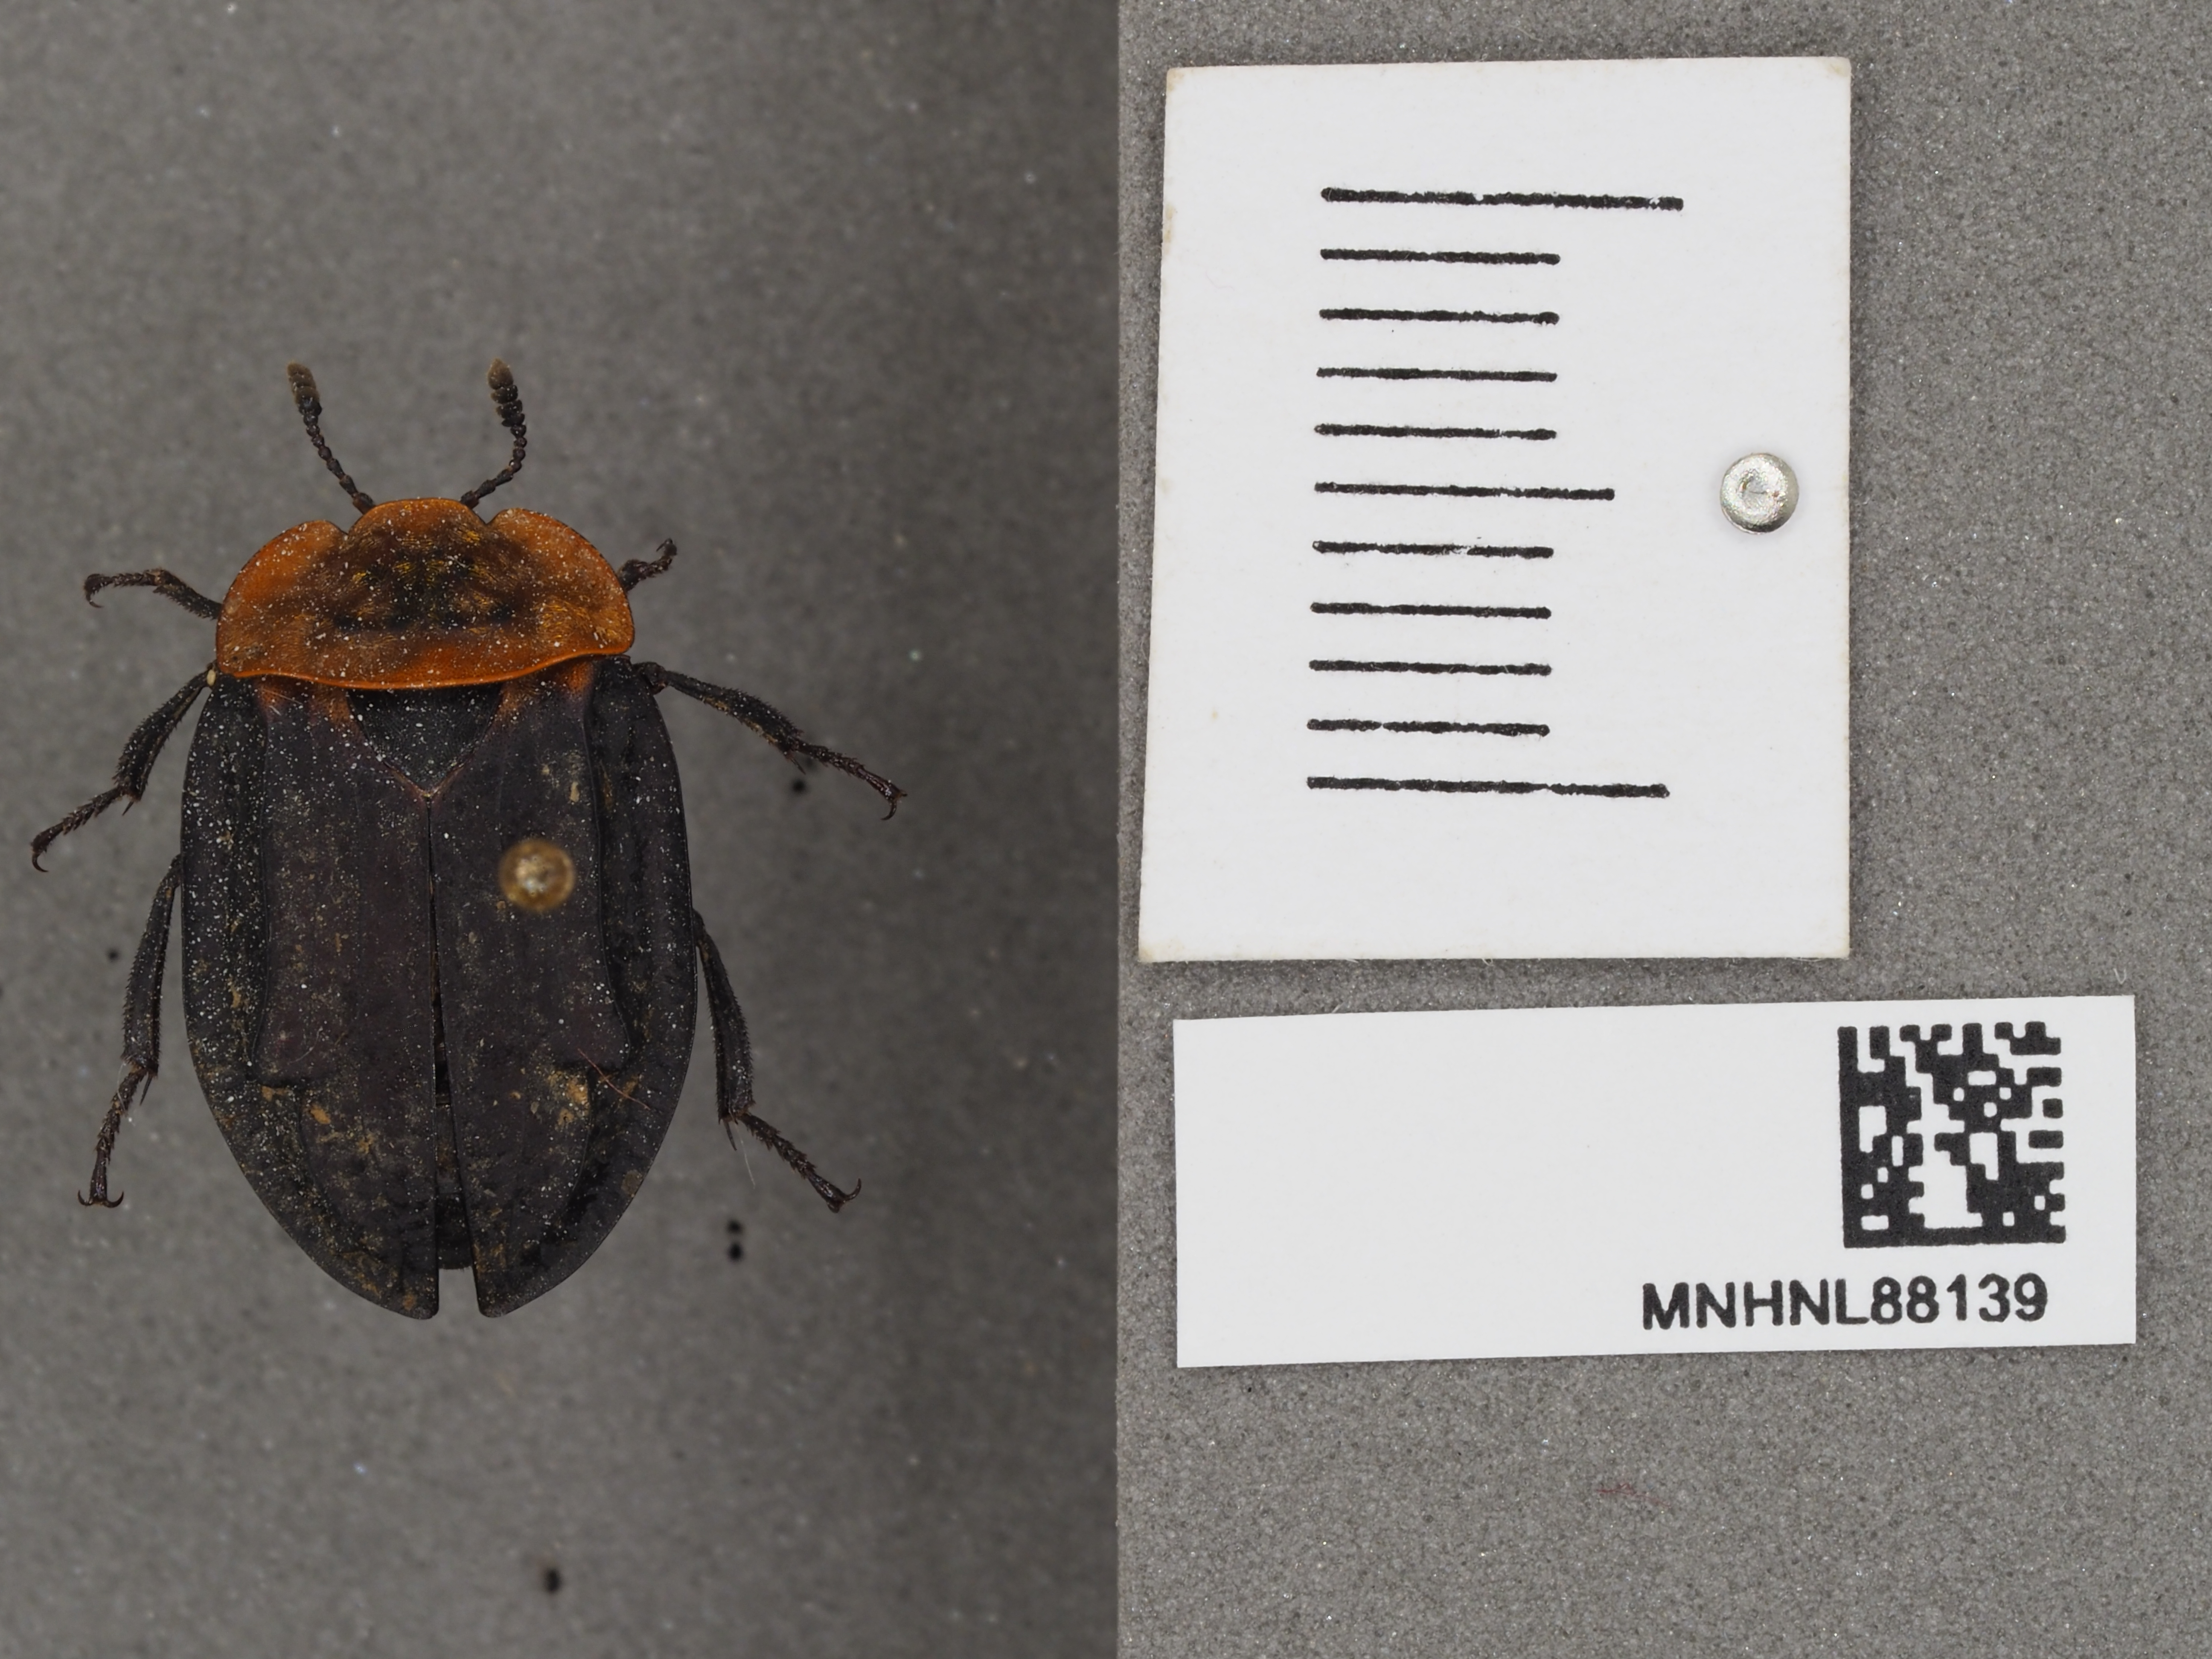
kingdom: Animalia
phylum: Arthropoda
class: Insecta
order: Coleoptera
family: Staphylinidae
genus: Oiceoptoma
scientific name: Oiceoptoma thoracicum
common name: Red-breasted carrion beetle
